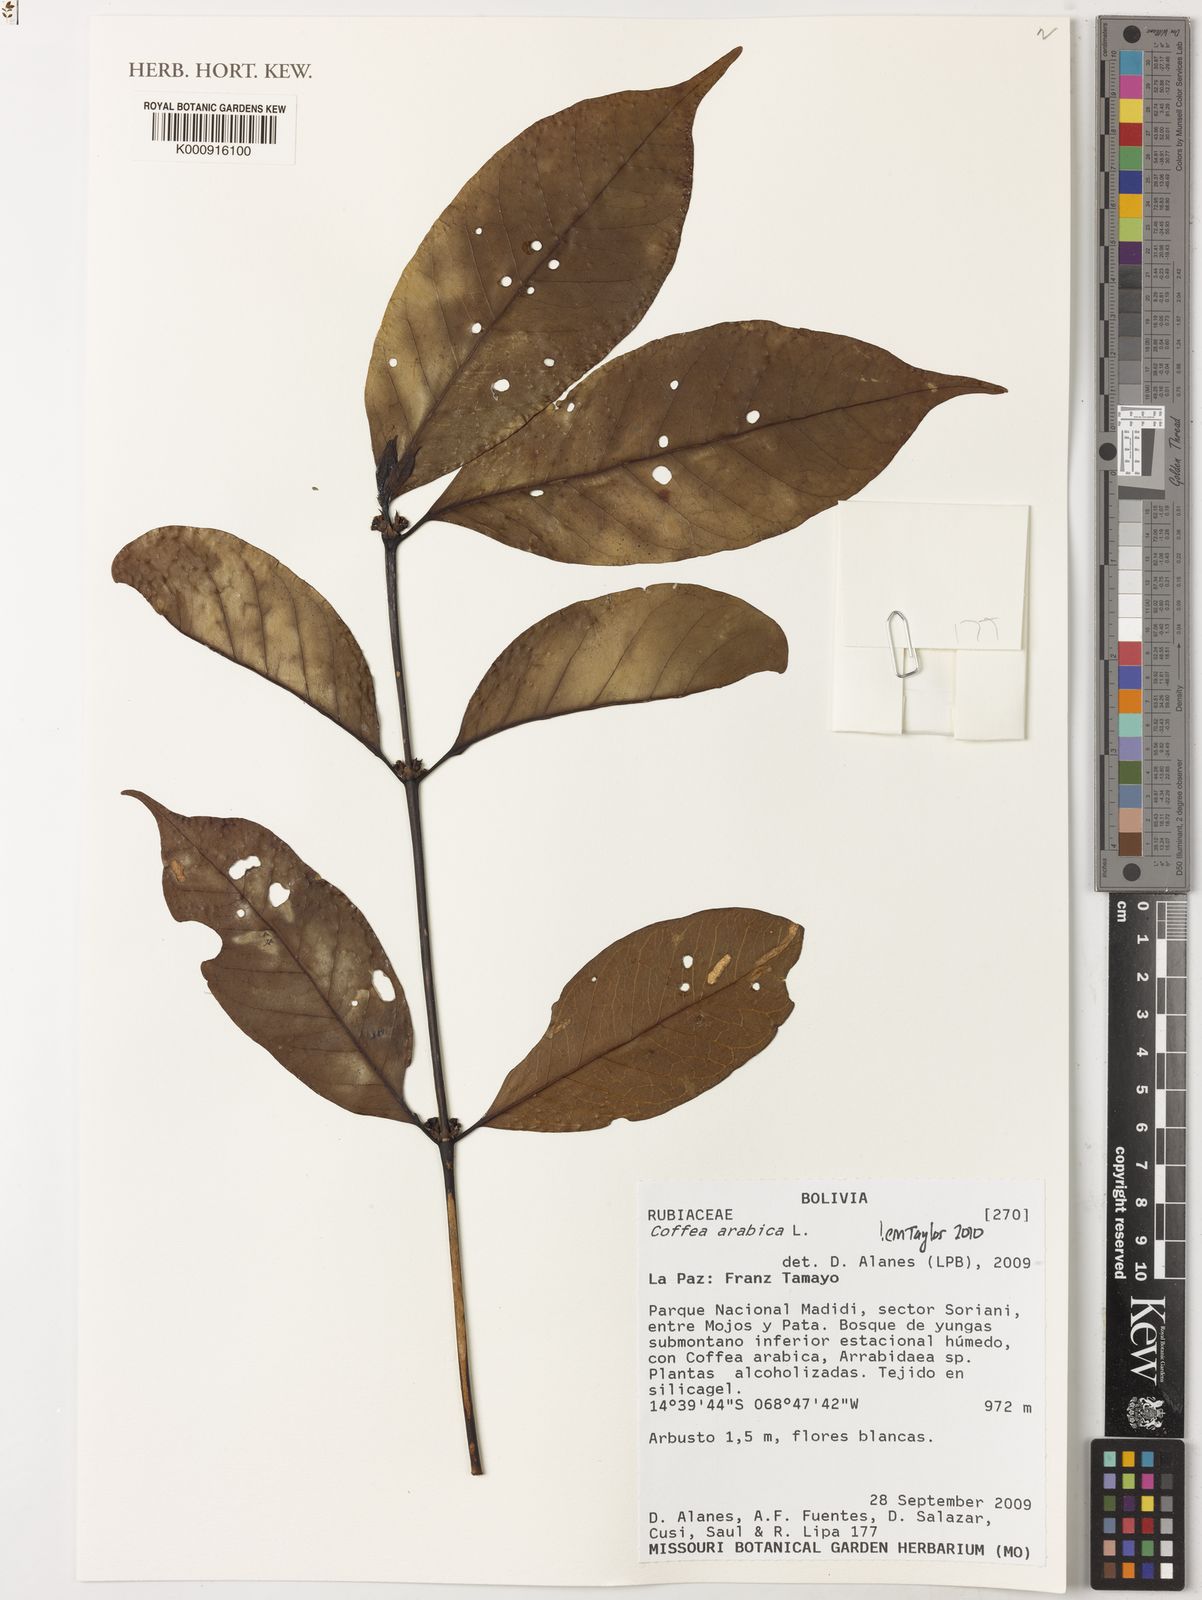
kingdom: Plantae
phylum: Tracheophyta
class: Magnoliopsida
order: Gentianales
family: Rubiaceae
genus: Coffea
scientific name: Coffea arabica
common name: Coffee
